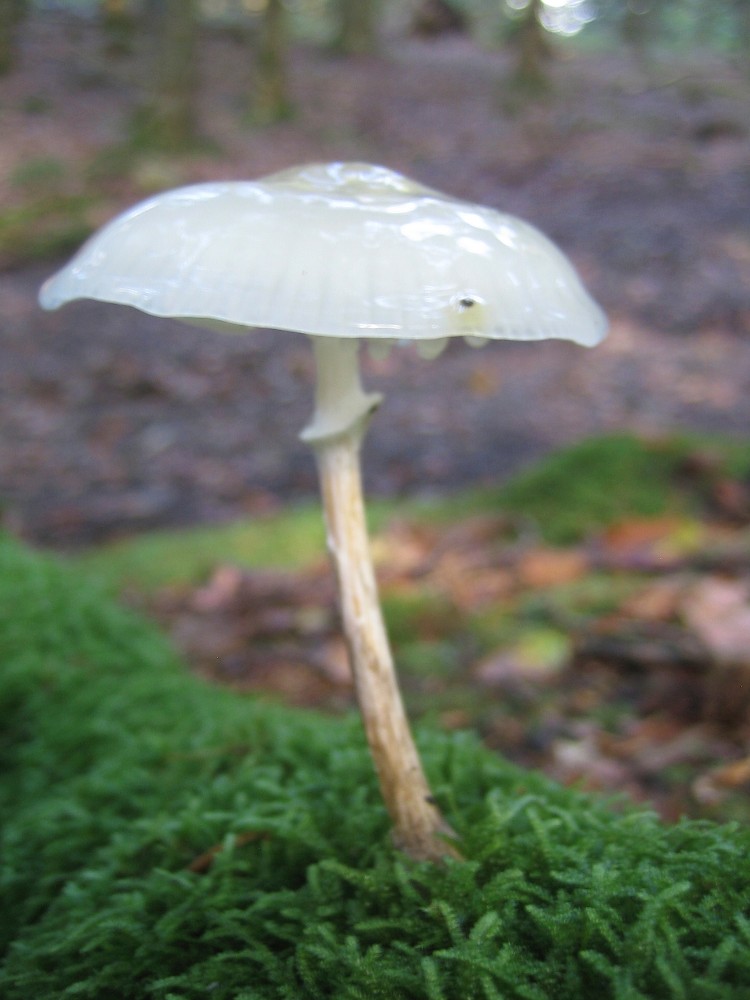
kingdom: Fungi
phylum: Basidiomycota
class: Agaricomycetes
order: Agaricales
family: Physalacriaceae
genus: Mucidula
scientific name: Mucidula
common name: porcelænshat
